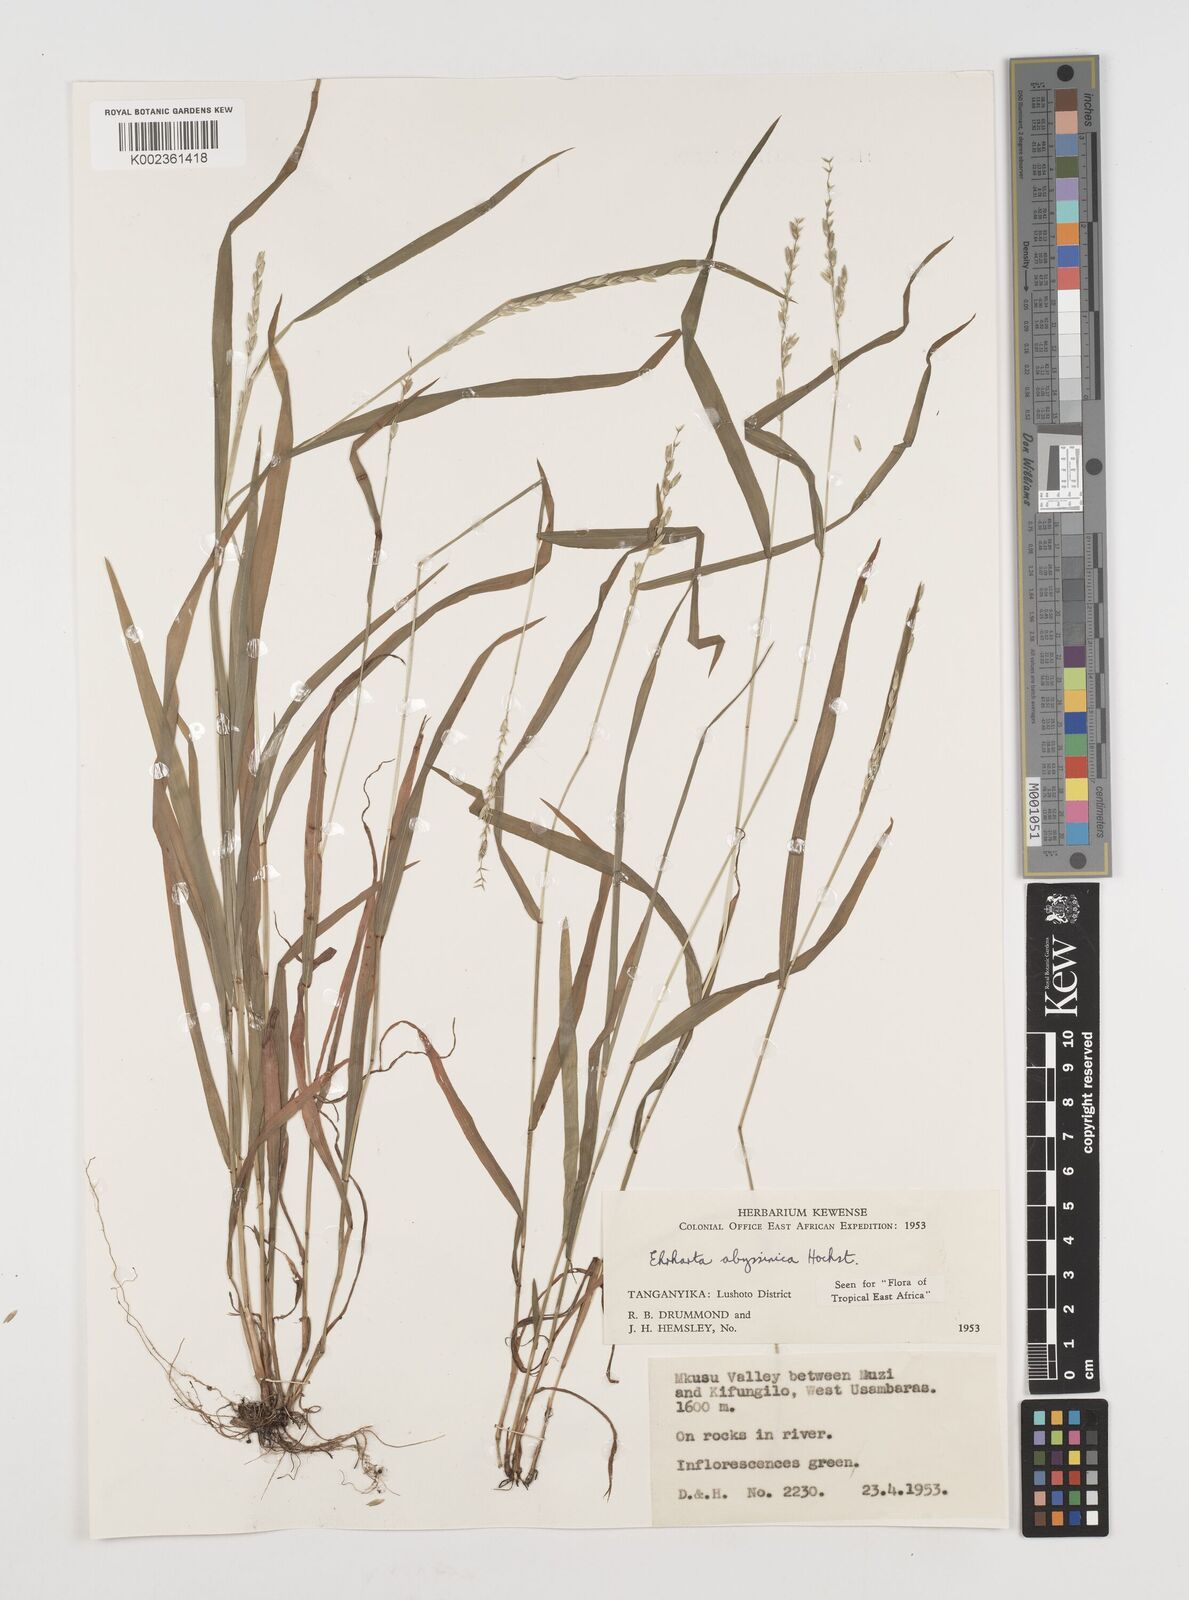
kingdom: Plantae
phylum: Tracheophyta
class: Liliopsida
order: Poales
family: Poaceae
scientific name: Poaceae
